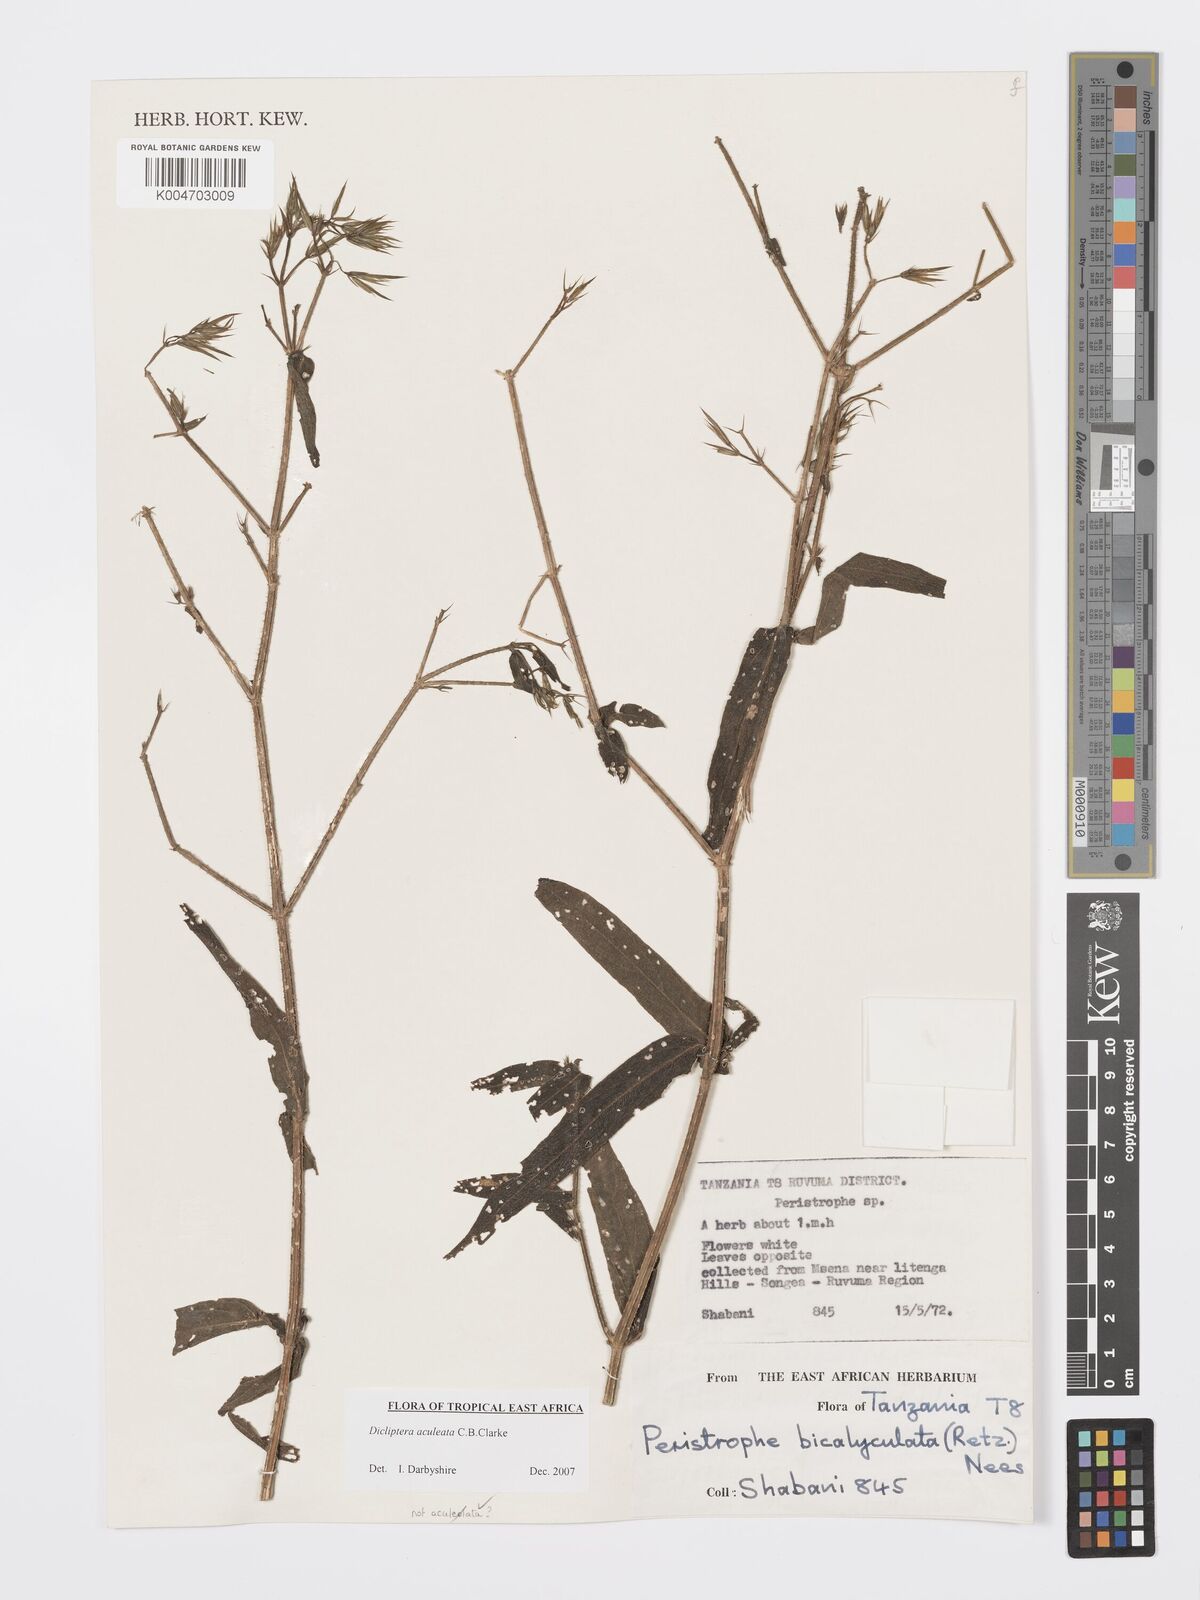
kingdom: Plantae
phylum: Tracheophyta
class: Magnoliopsida
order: Lamiales
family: Acanthaceae
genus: Dicliptera
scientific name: Dicliptera hensii
